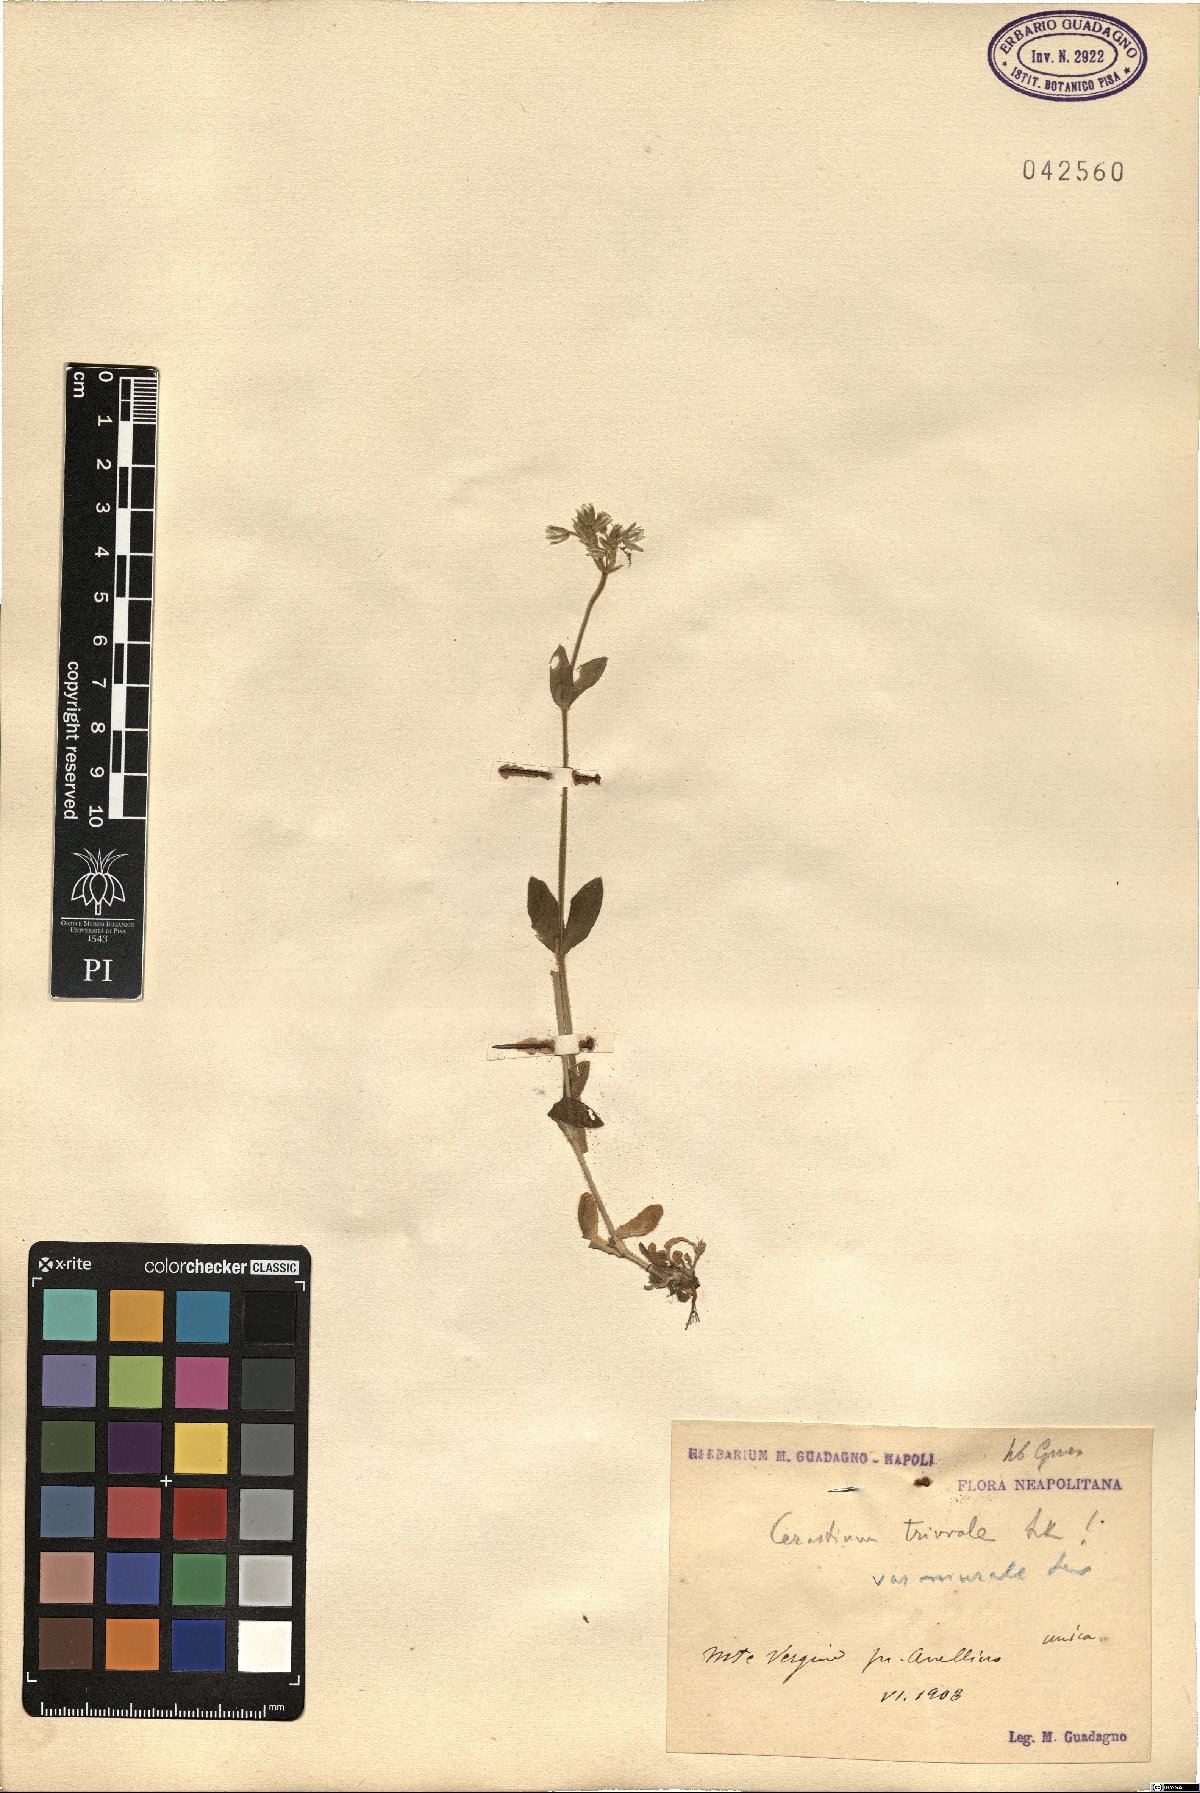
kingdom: Plantae
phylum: Tracheophyta
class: Magnoliopsida
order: Caryophyllales
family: Caryophyllaceae
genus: Cerastium
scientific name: Cerastium glomeratum
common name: Sticky chickweed
